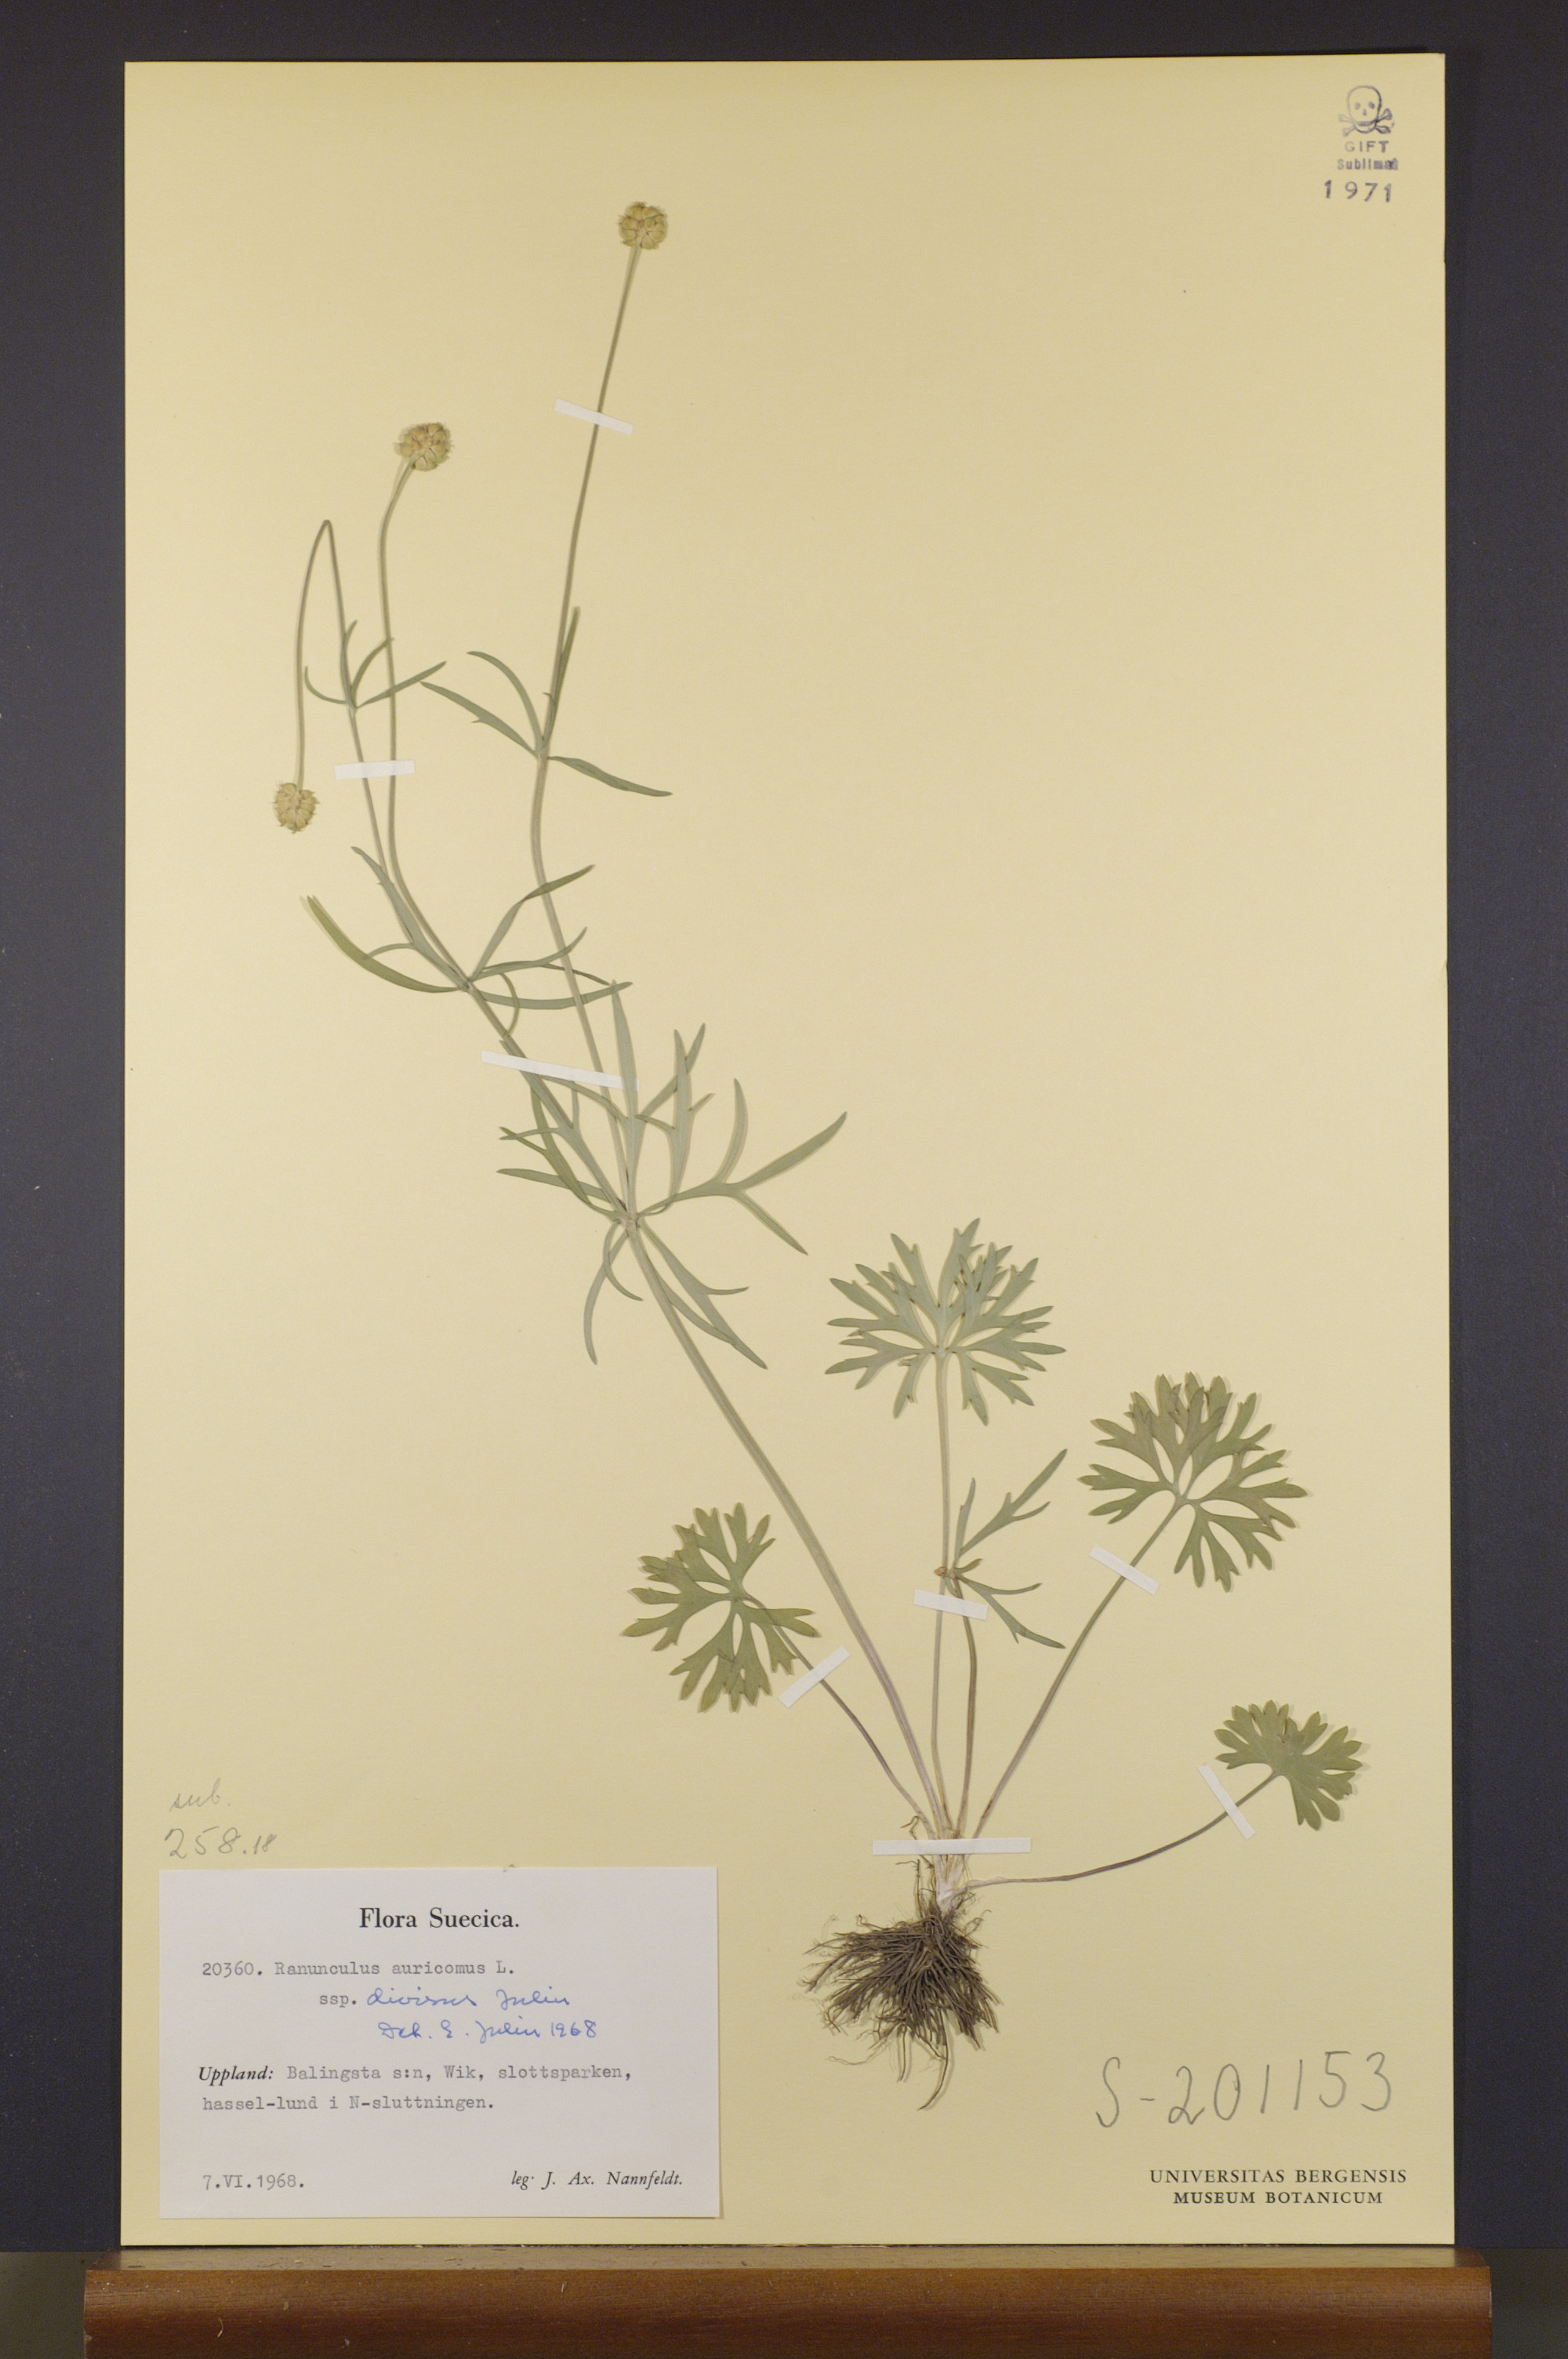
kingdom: Plantae
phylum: Tracheophyta
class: Magnoliopsida
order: Ranunculales
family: Ranunculaceae
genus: Ranunculus
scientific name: Ranunculus auricomus
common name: Goldilocks buttercup
